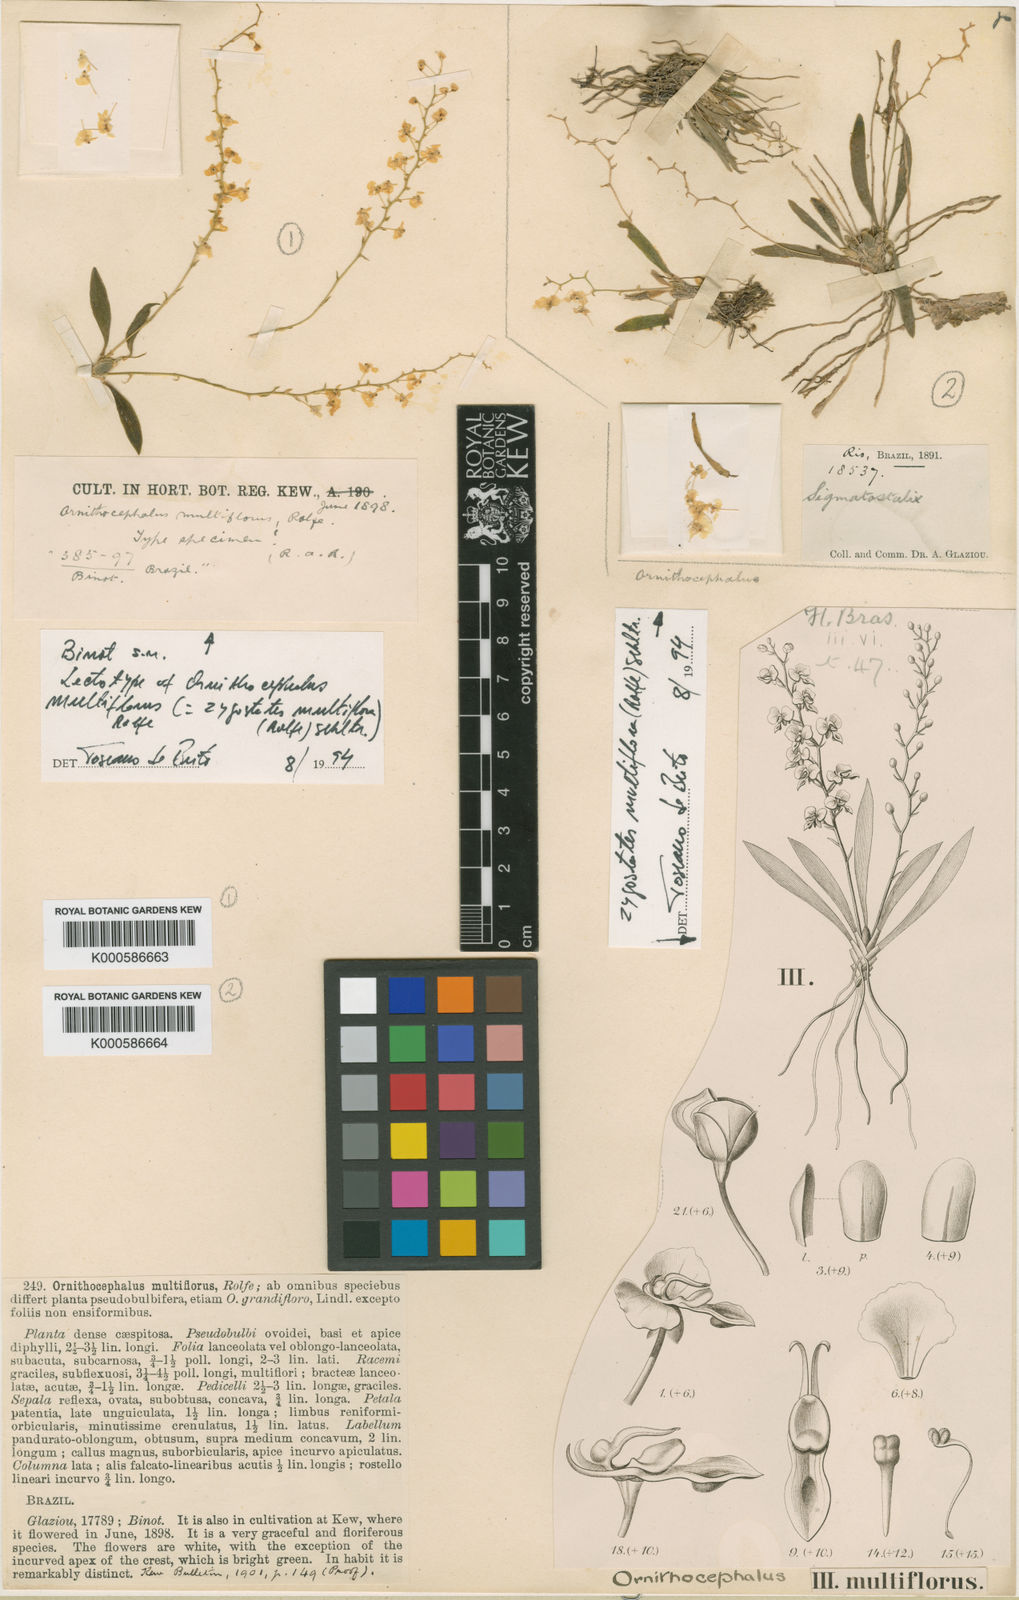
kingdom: Plantae
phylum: Tracheophyta
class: Liliopsida
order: Asparagales
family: Orchidaceae
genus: Zygostates
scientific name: Zygostates multiflora
